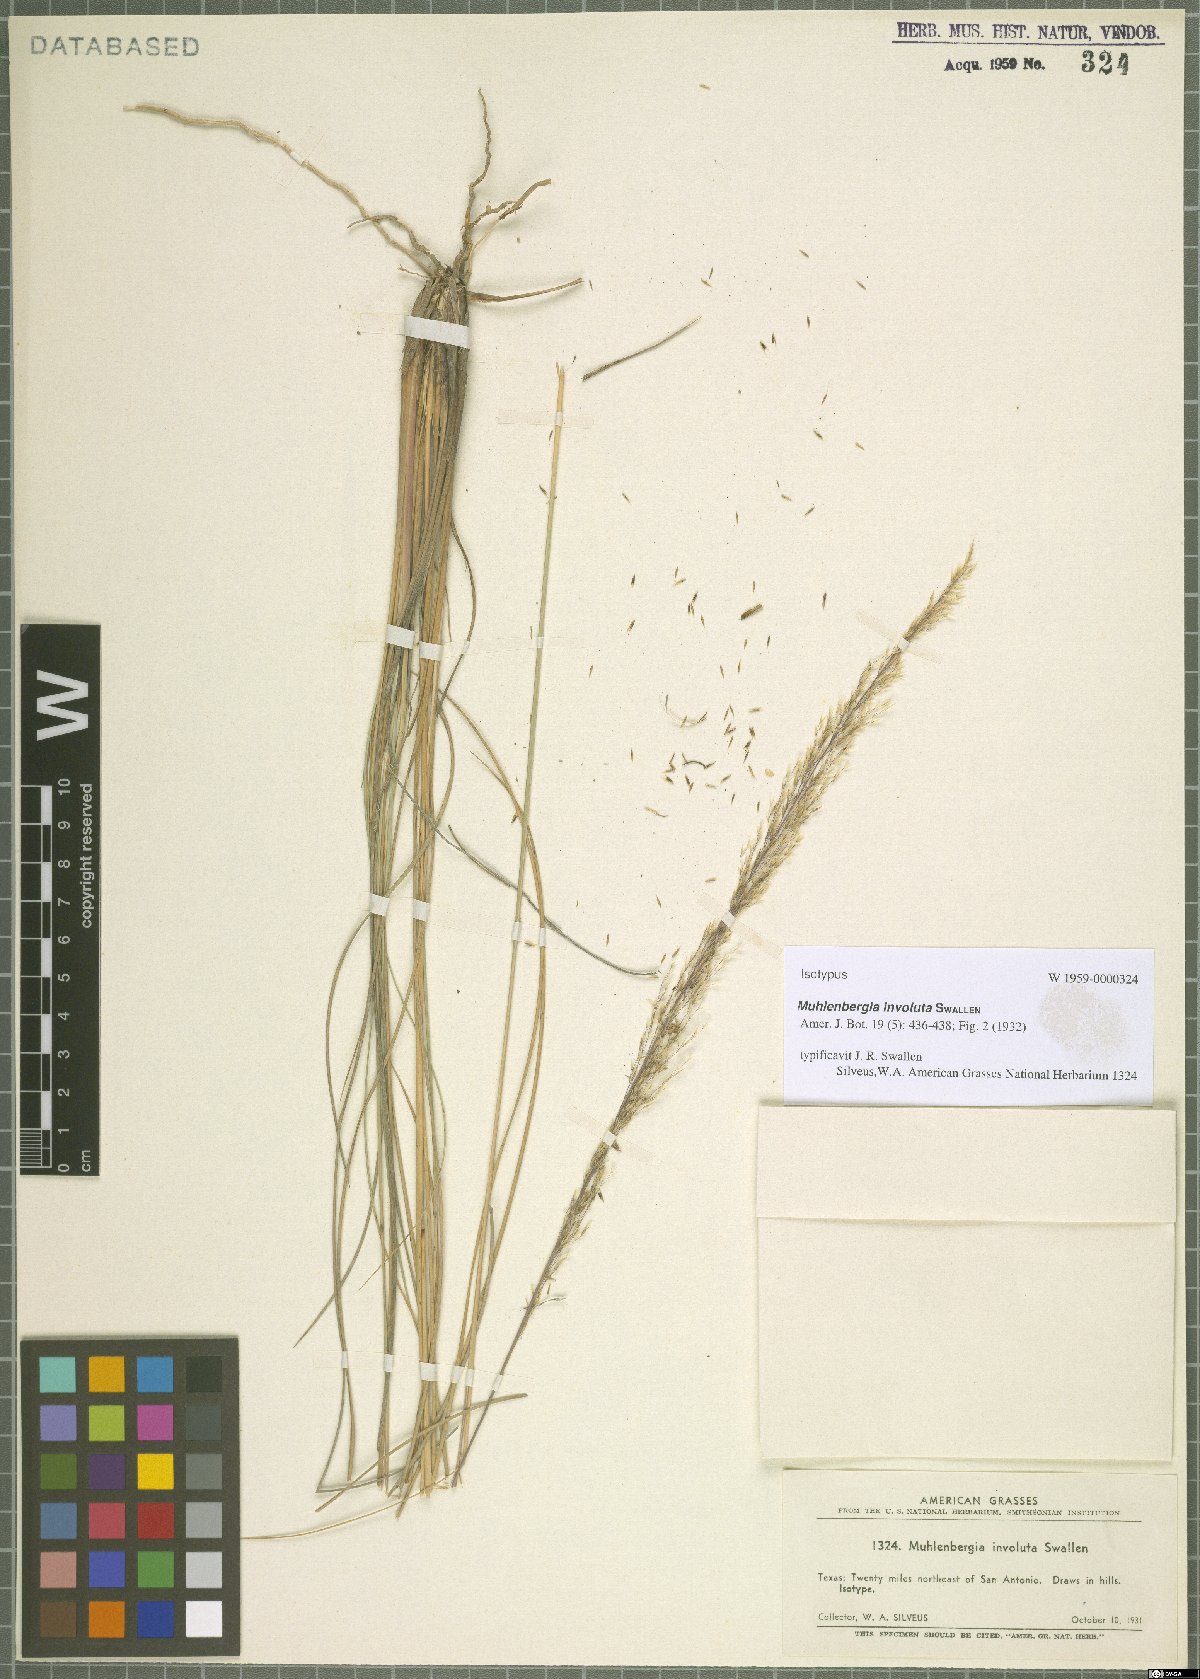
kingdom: Plantae
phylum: Tracheophyta
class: Liliopsida
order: Poales
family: Poaceae
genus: Muhlenbergia
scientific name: Muhlenbergia involuta
